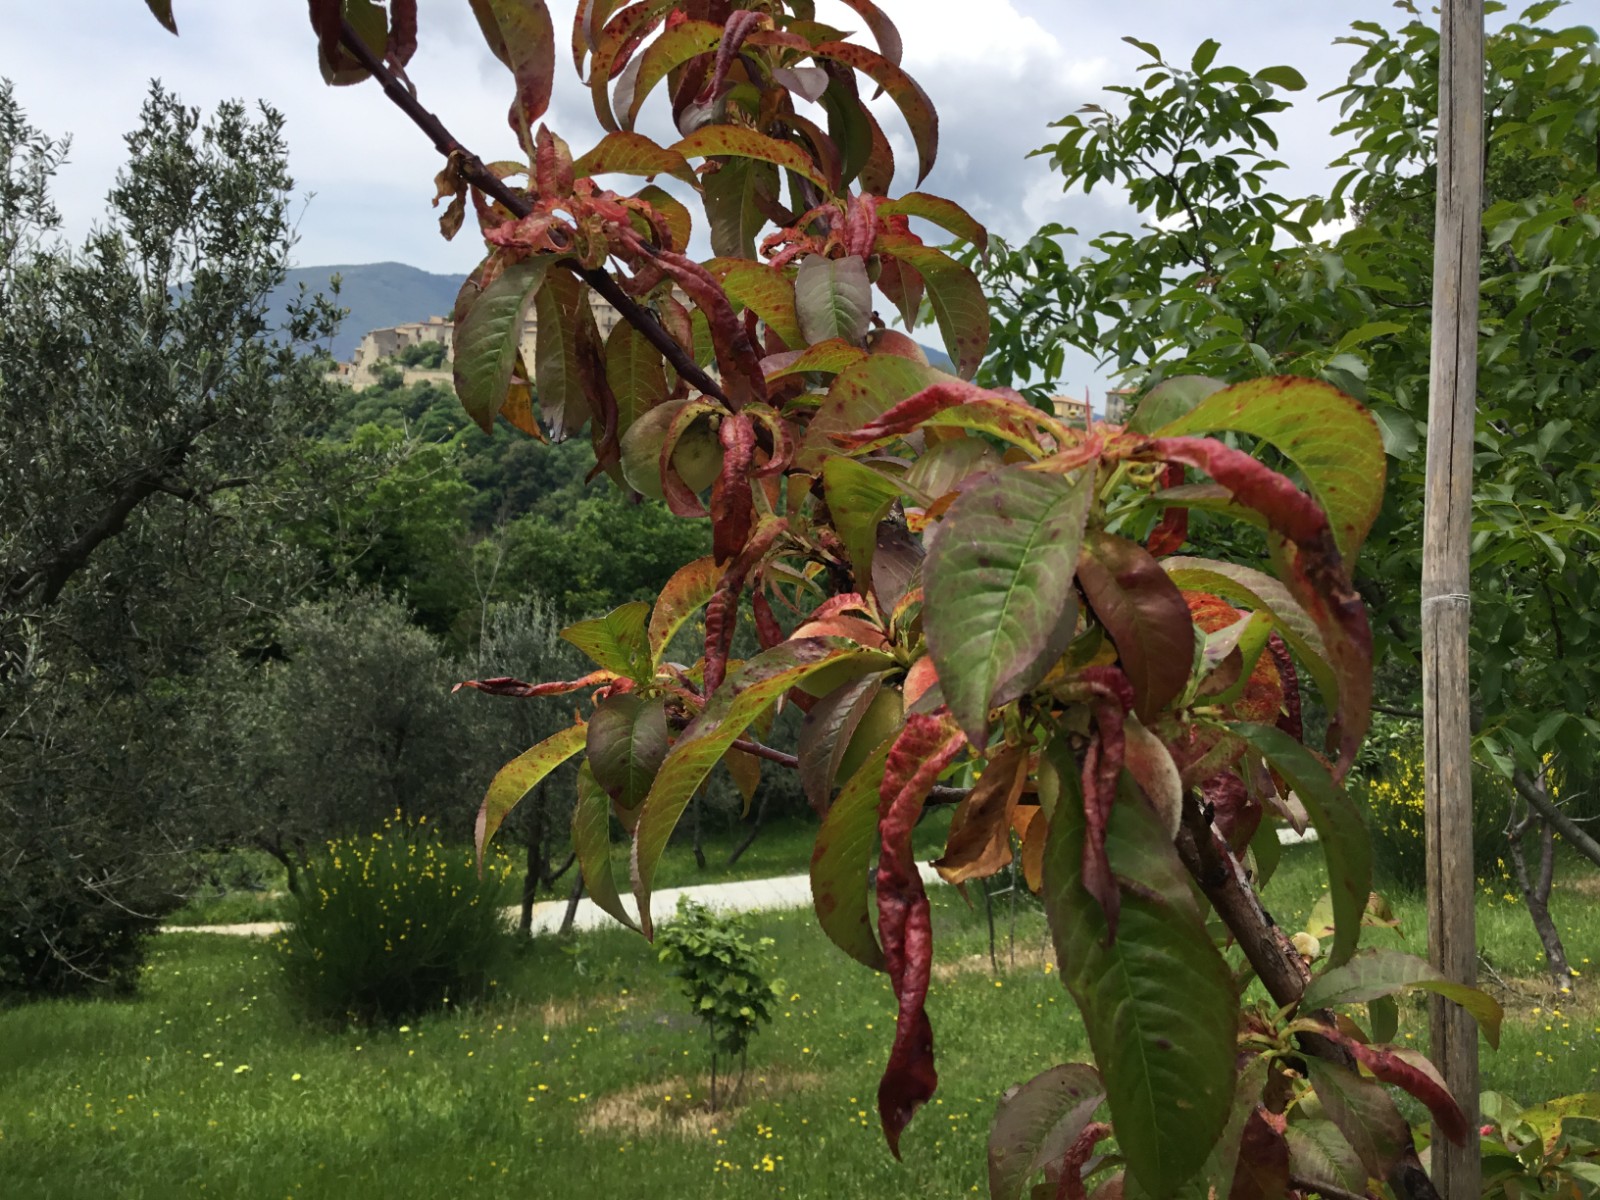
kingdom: Fungi
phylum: Ascomycota
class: Taphrinomycetes
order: Taphrinales
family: Taphrinaceae
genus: Taphrina
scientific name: Taphrina deformans
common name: Peach leaf curl
